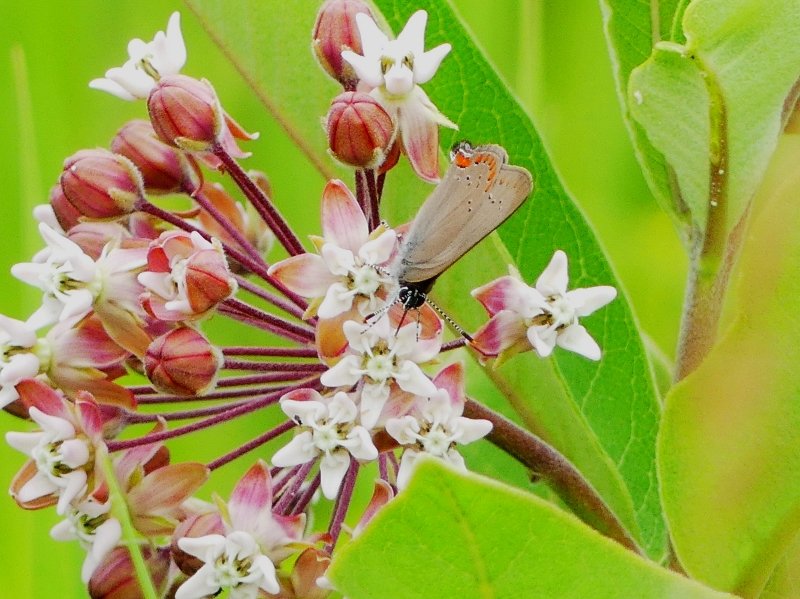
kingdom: Animalia
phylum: Arthropoda
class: Insecta
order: Lepidoptera
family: Lycaenidae
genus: Harkenclenus
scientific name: Harkenclenus titus
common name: Coral Hairstreak
